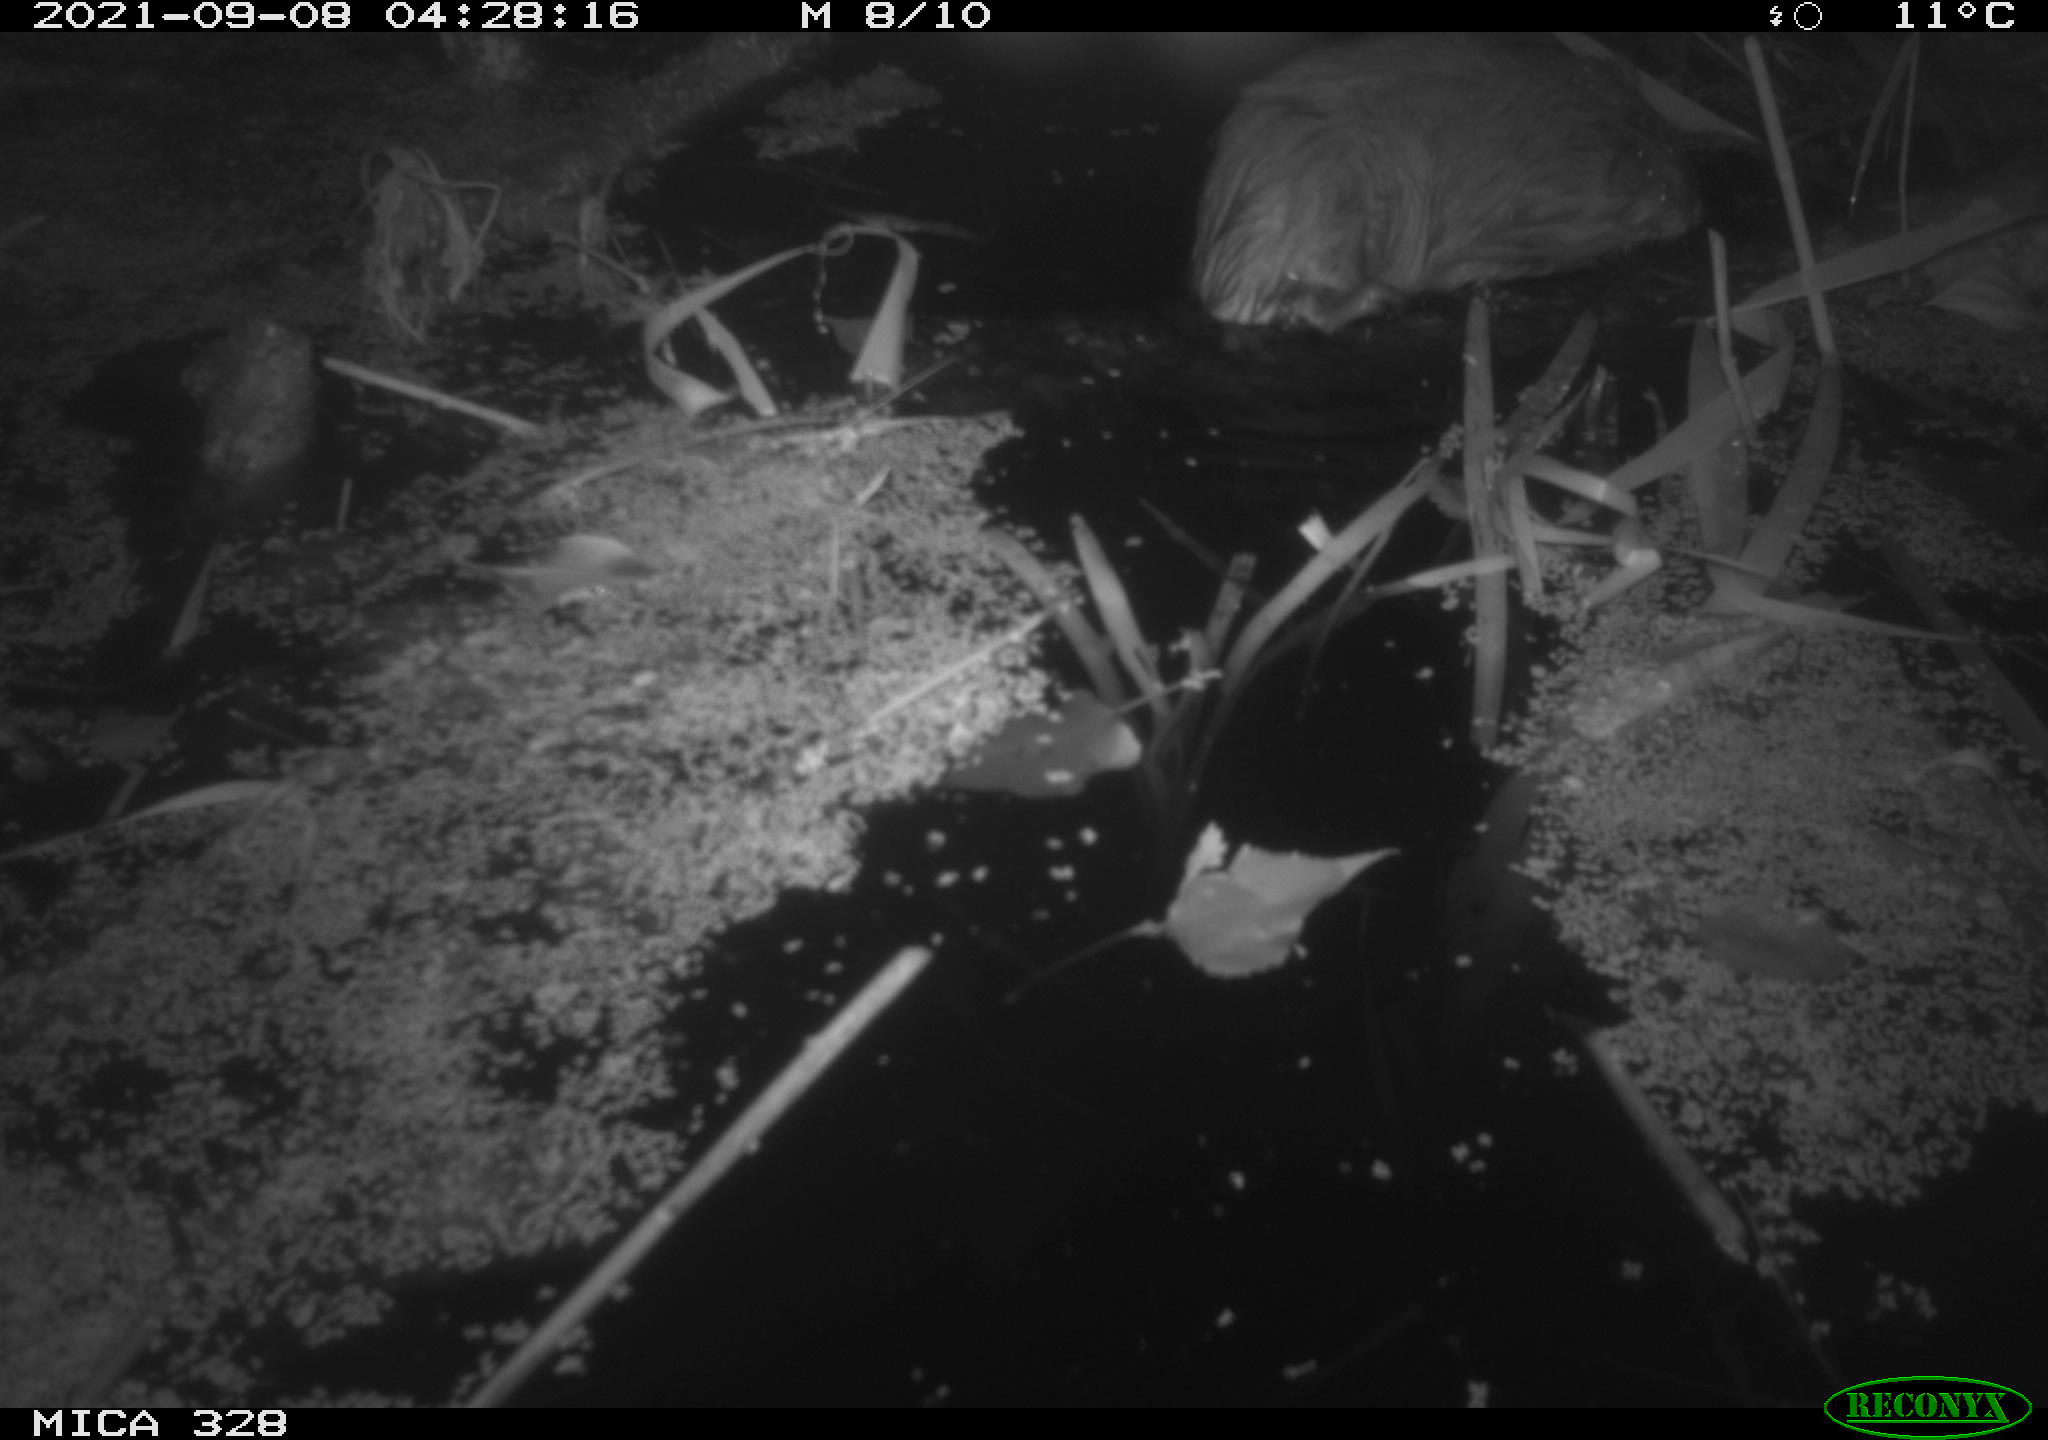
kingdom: Animalia
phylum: Chordata
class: Mammalia
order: Rodentia
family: Cricetidae
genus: Ondatra
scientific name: Ondatra zibethicus
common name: Muskrat
